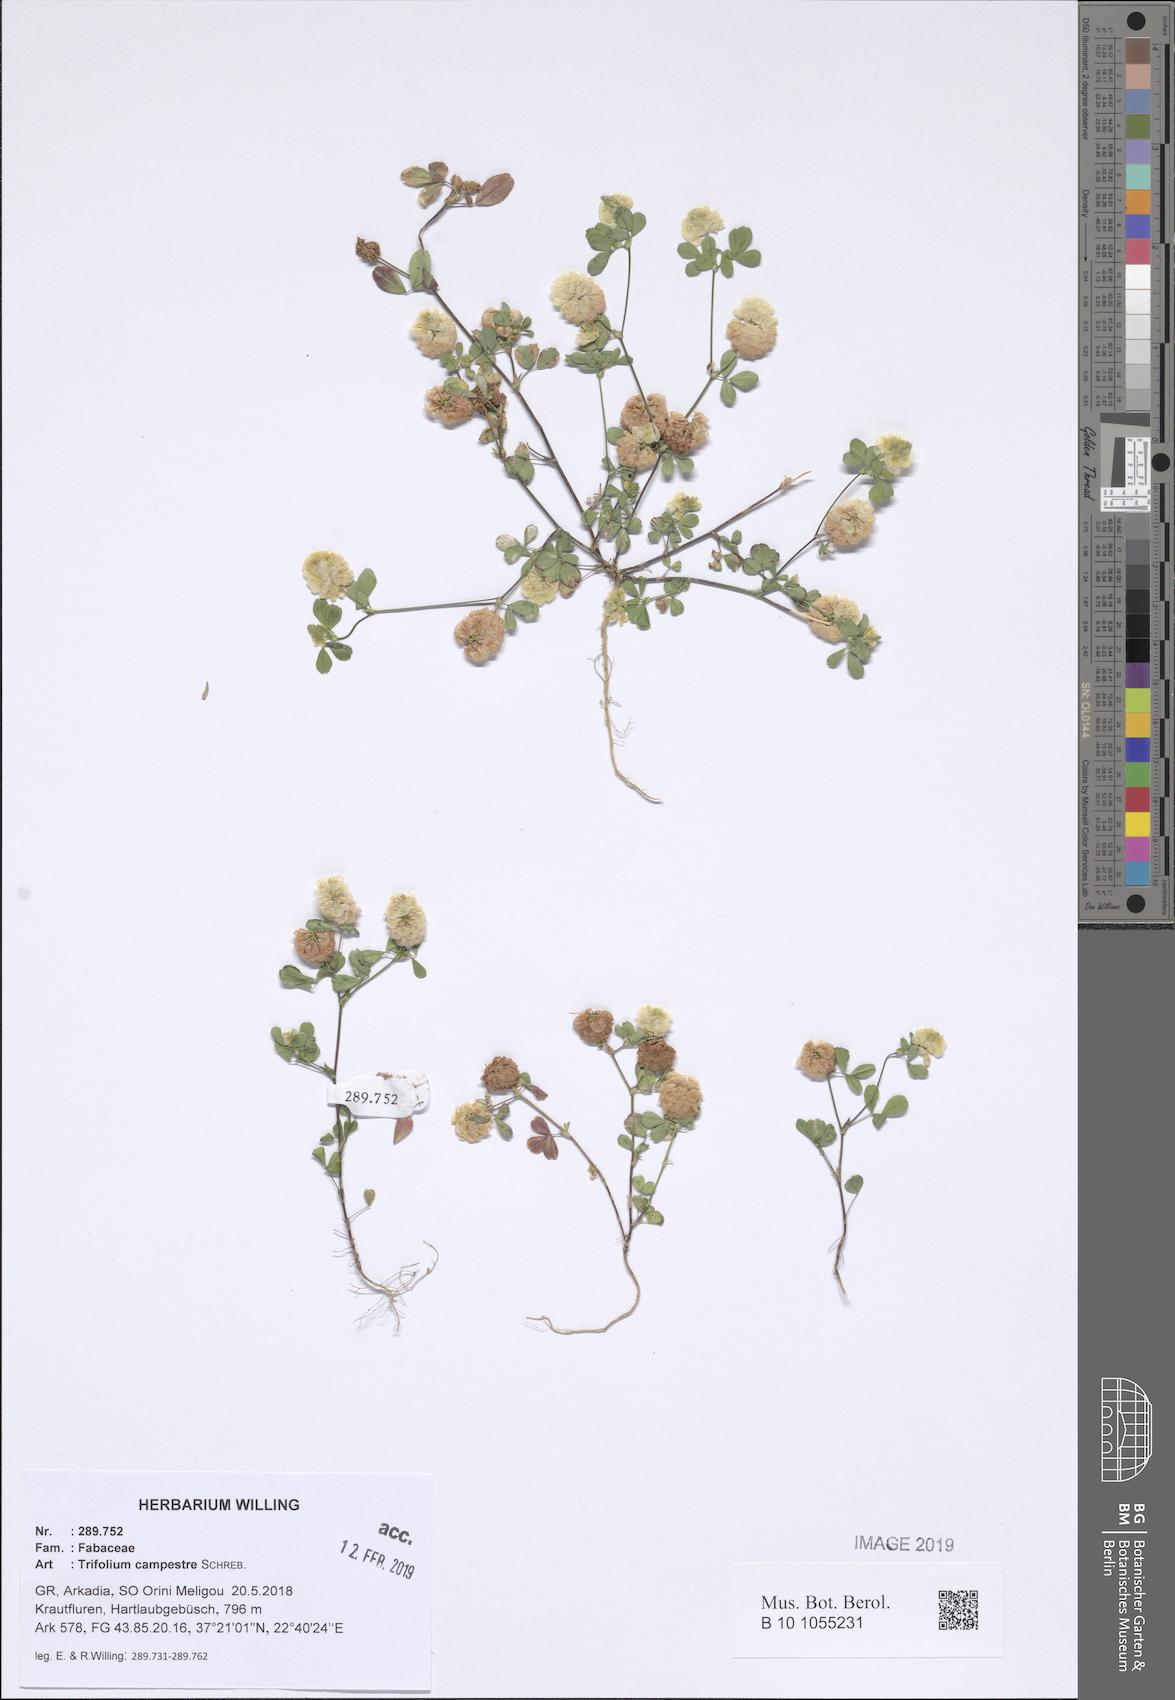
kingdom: Plantae
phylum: Tracheophyta
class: Magnoliopsida
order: Fabales
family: Fabaceae
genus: Trifolium
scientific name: Trifolium campestre
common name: Field clover
